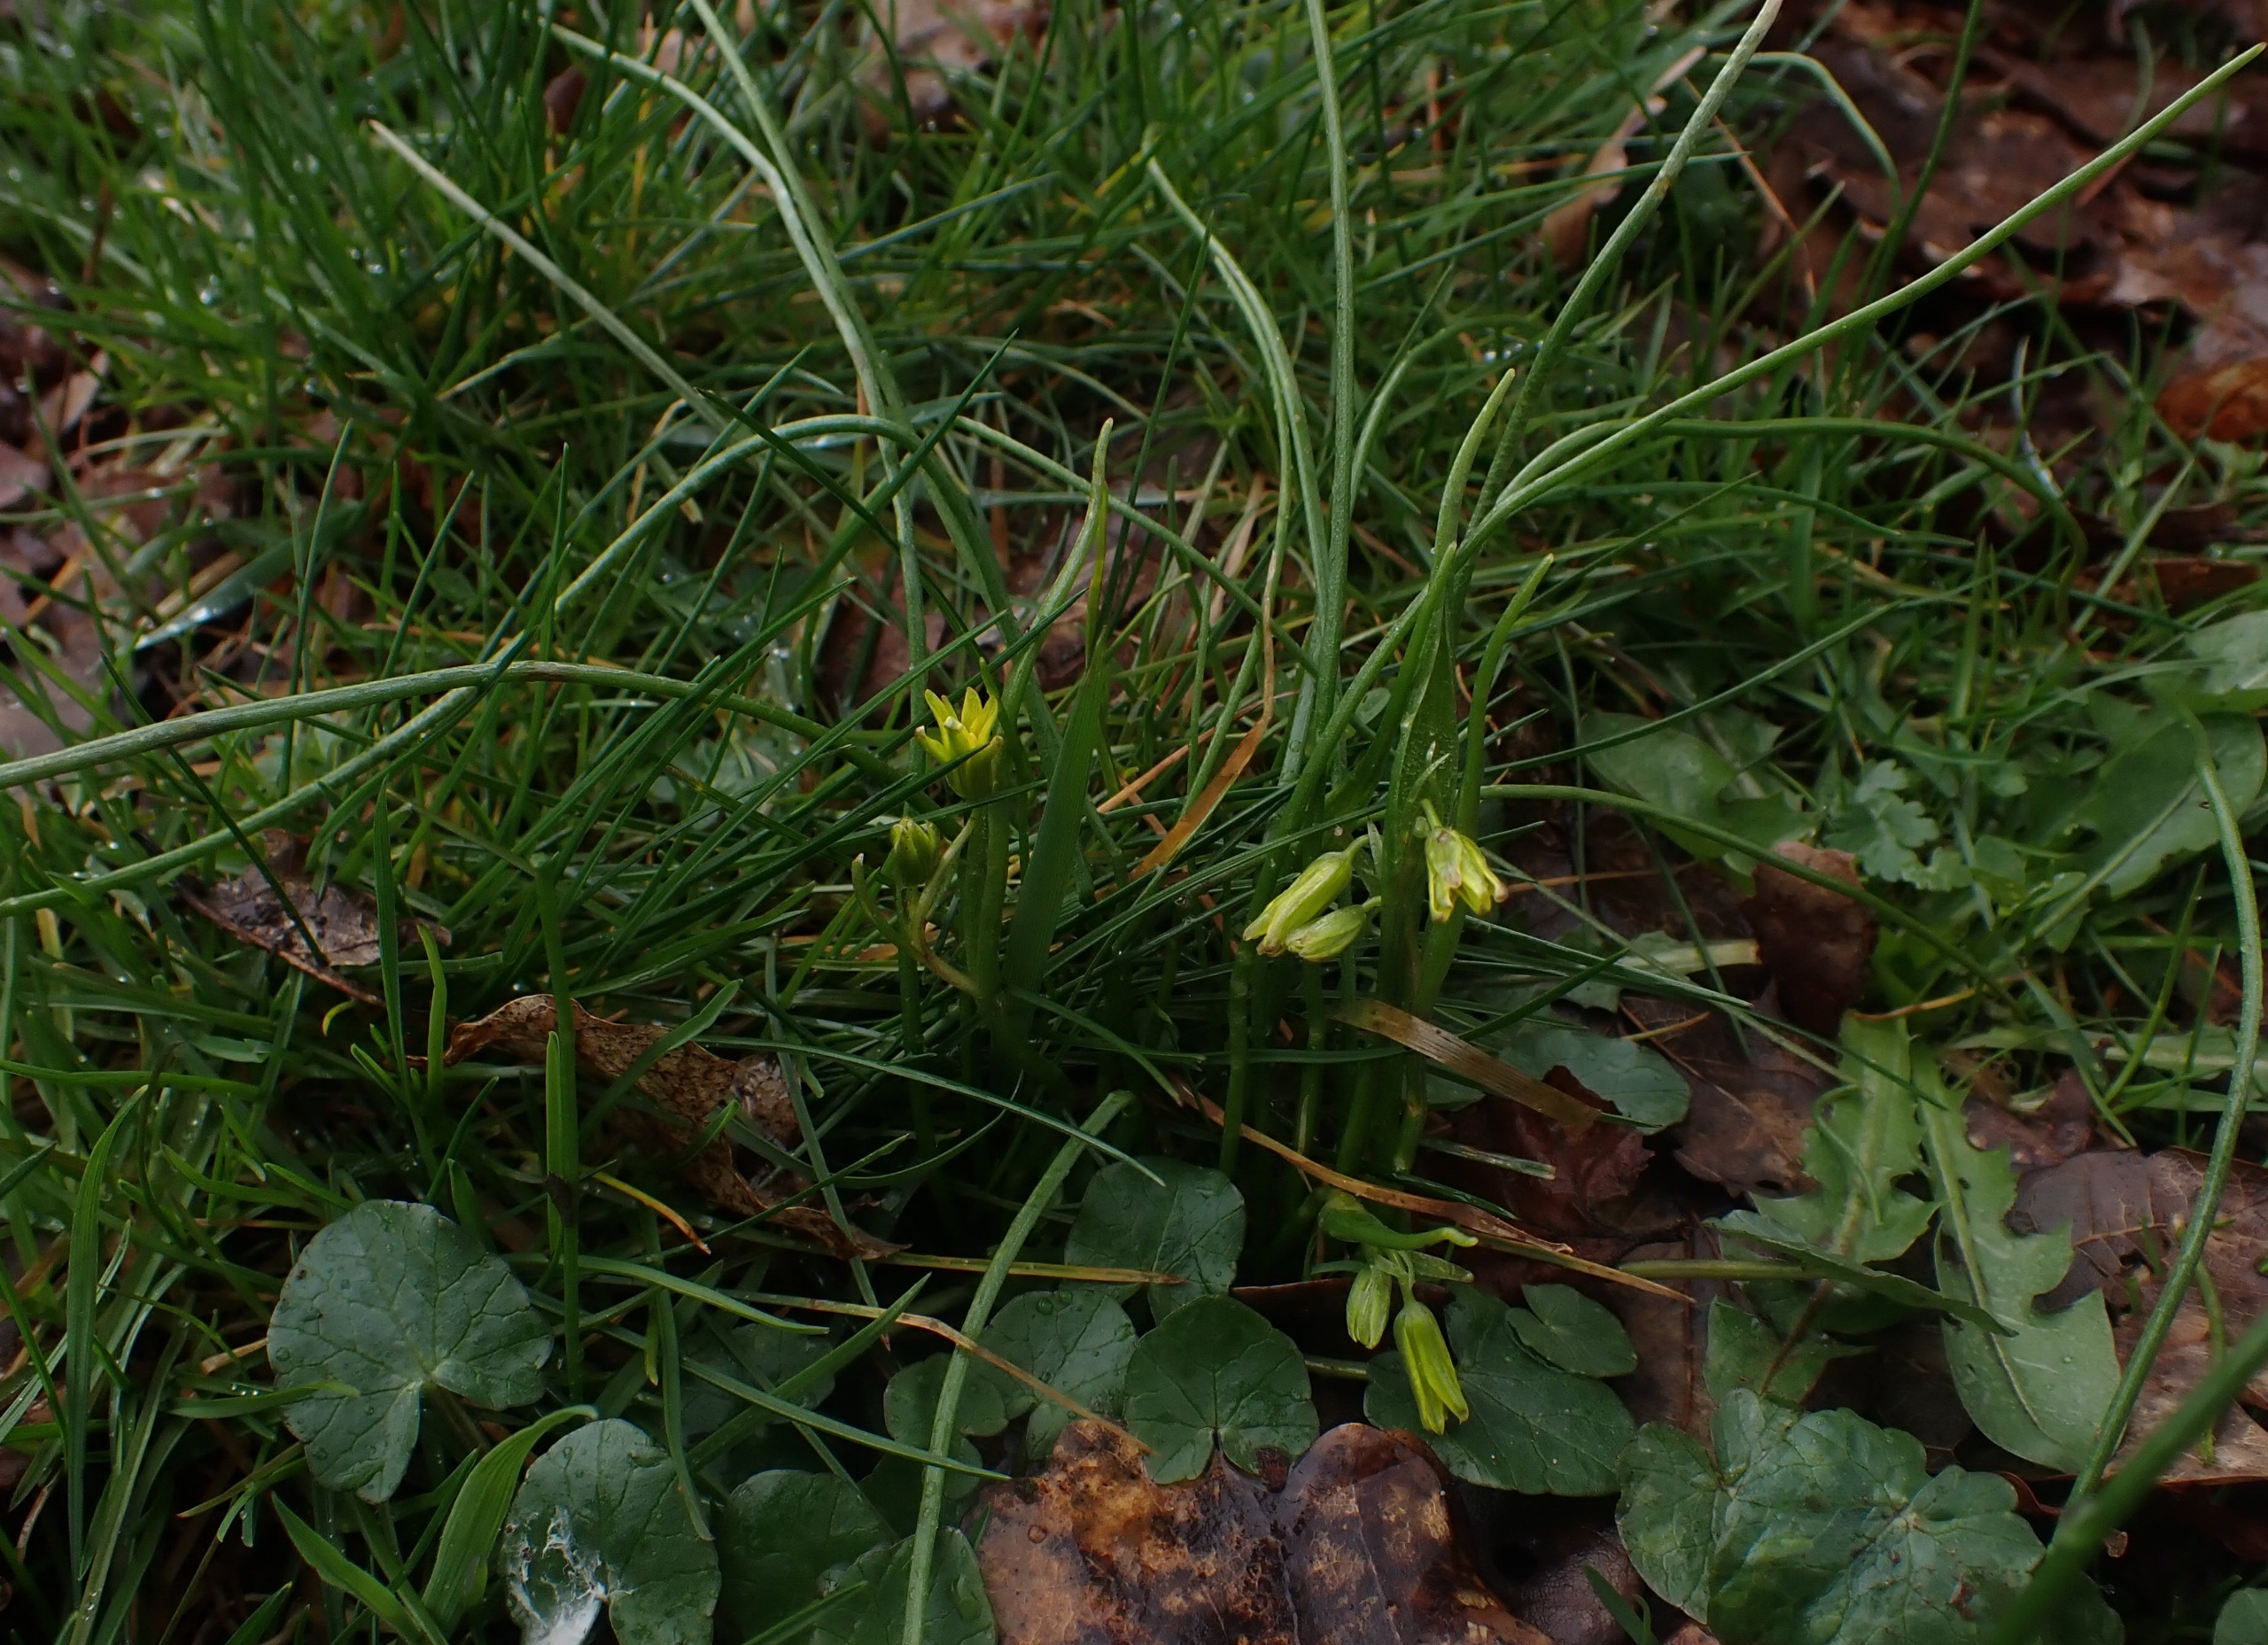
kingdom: Plantae
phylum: Tracheophyta
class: Liliopsida
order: Liliales
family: Liliaceae
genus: Gagea
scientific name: Gagea spathacea
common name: Hylster-guldstjerne
